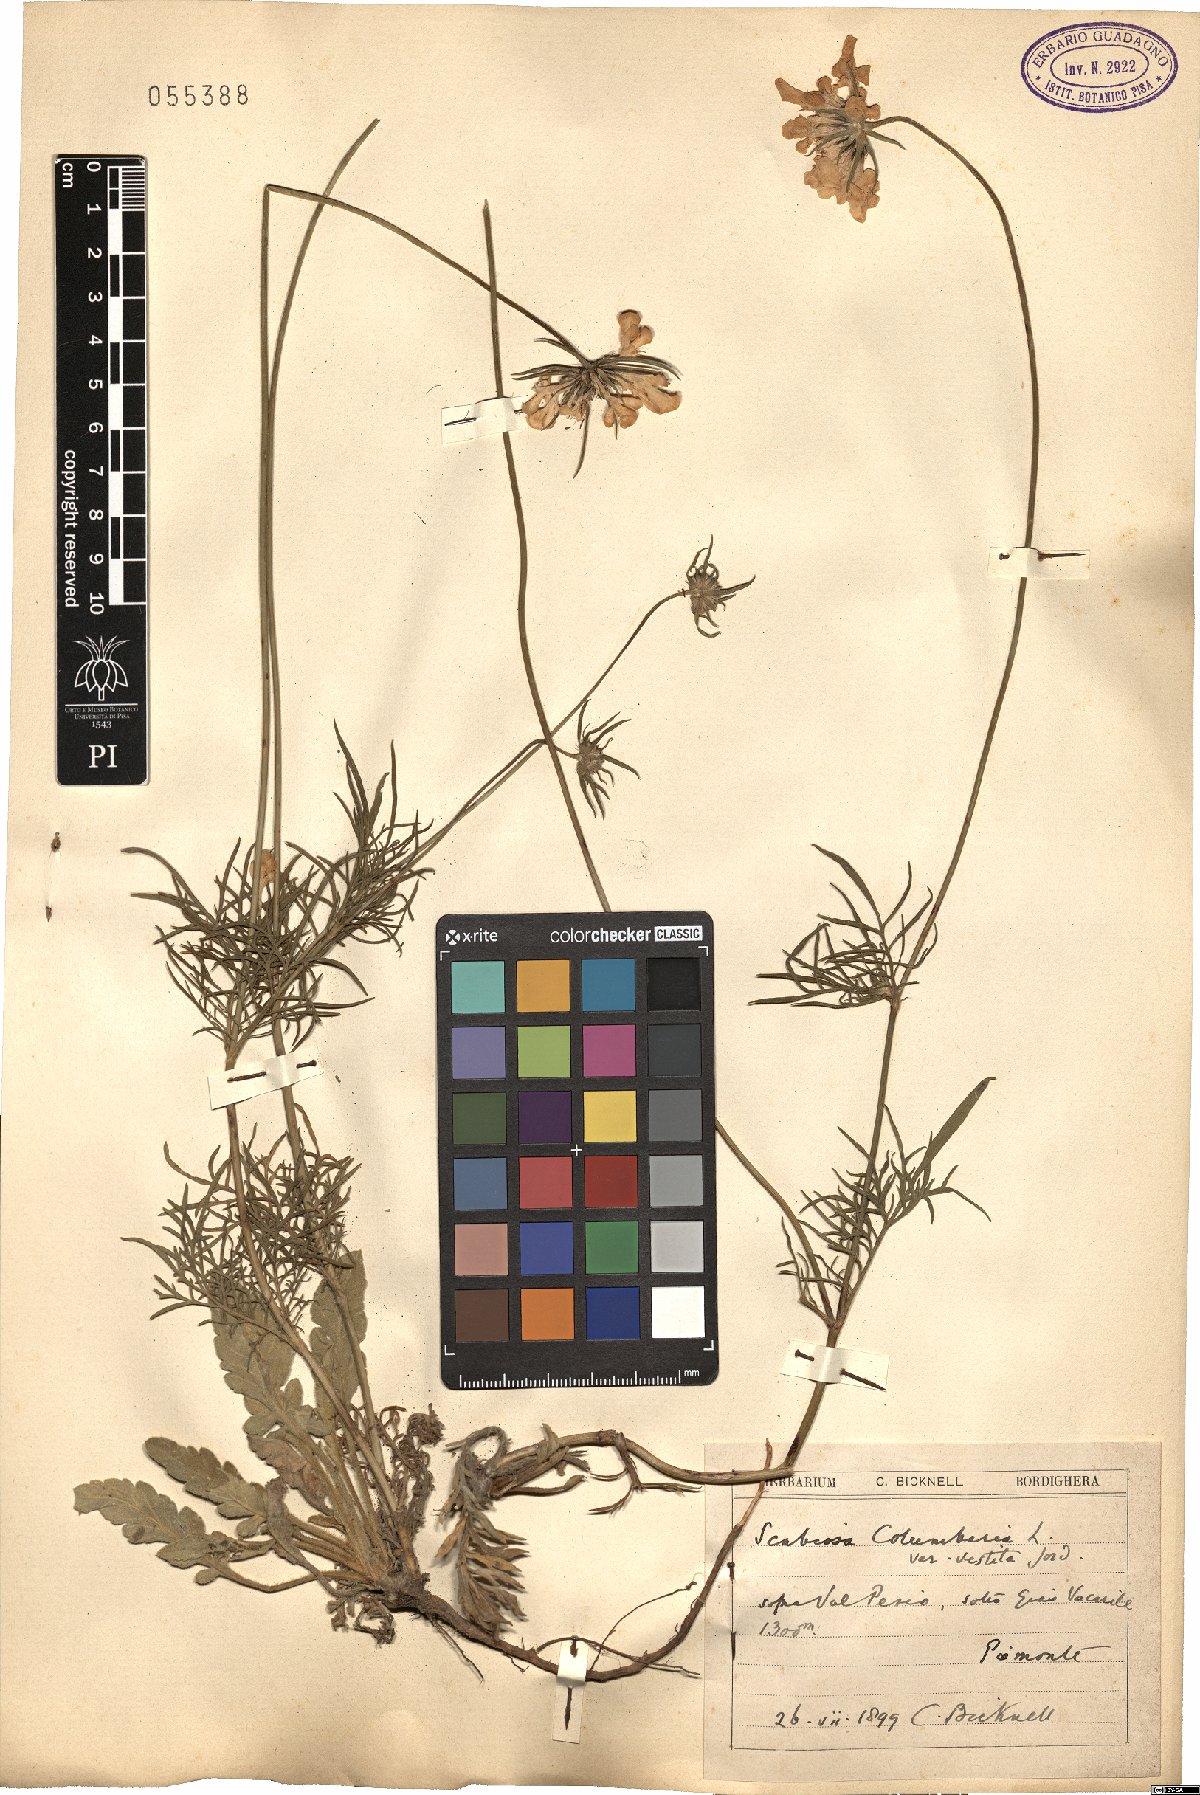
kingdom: Plantae
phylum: Tracheophyta
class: Magnoliopsida
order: Dipsacales
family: Caprifoliaceae
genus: Scabiosa
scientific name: Scabiosa columbaria
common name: Small scabious
